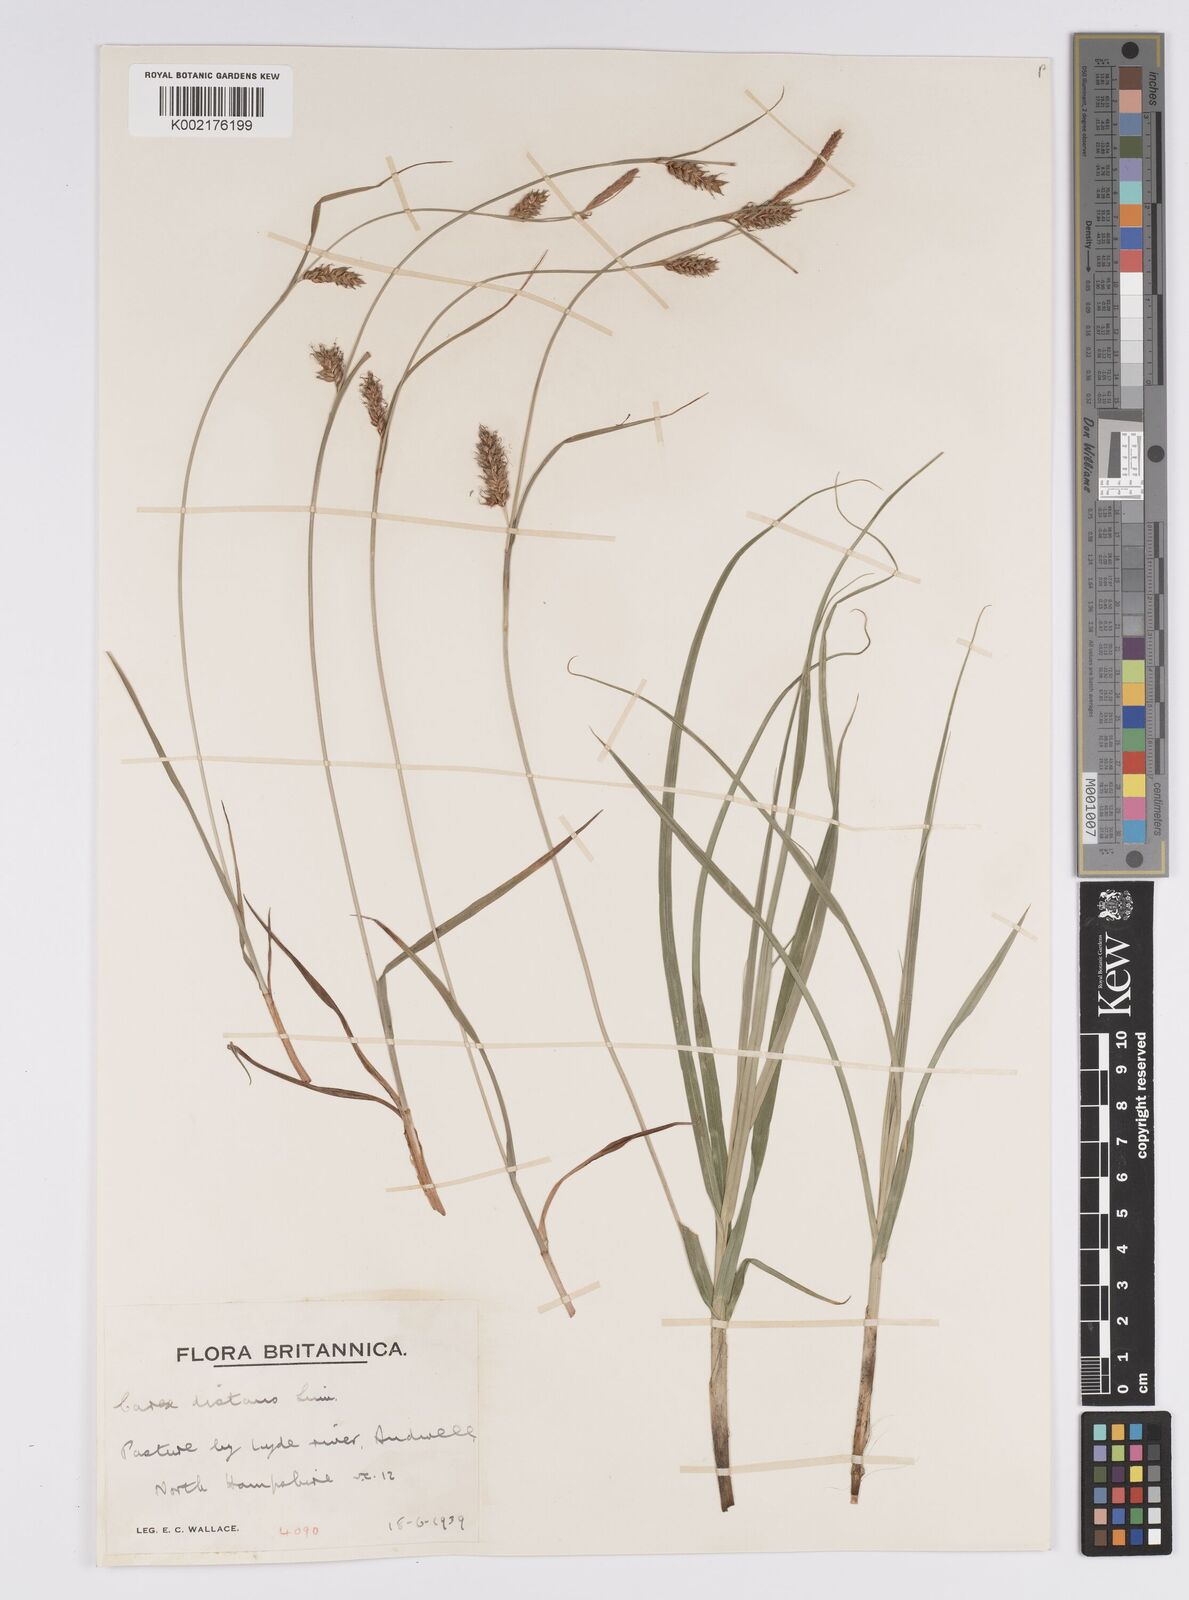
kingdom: Plantae
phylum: Tracheophyta
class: Liliopsida
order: Poales
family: Cyperaceae
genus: Carex
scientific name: Carex distans
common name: Distant sedge
